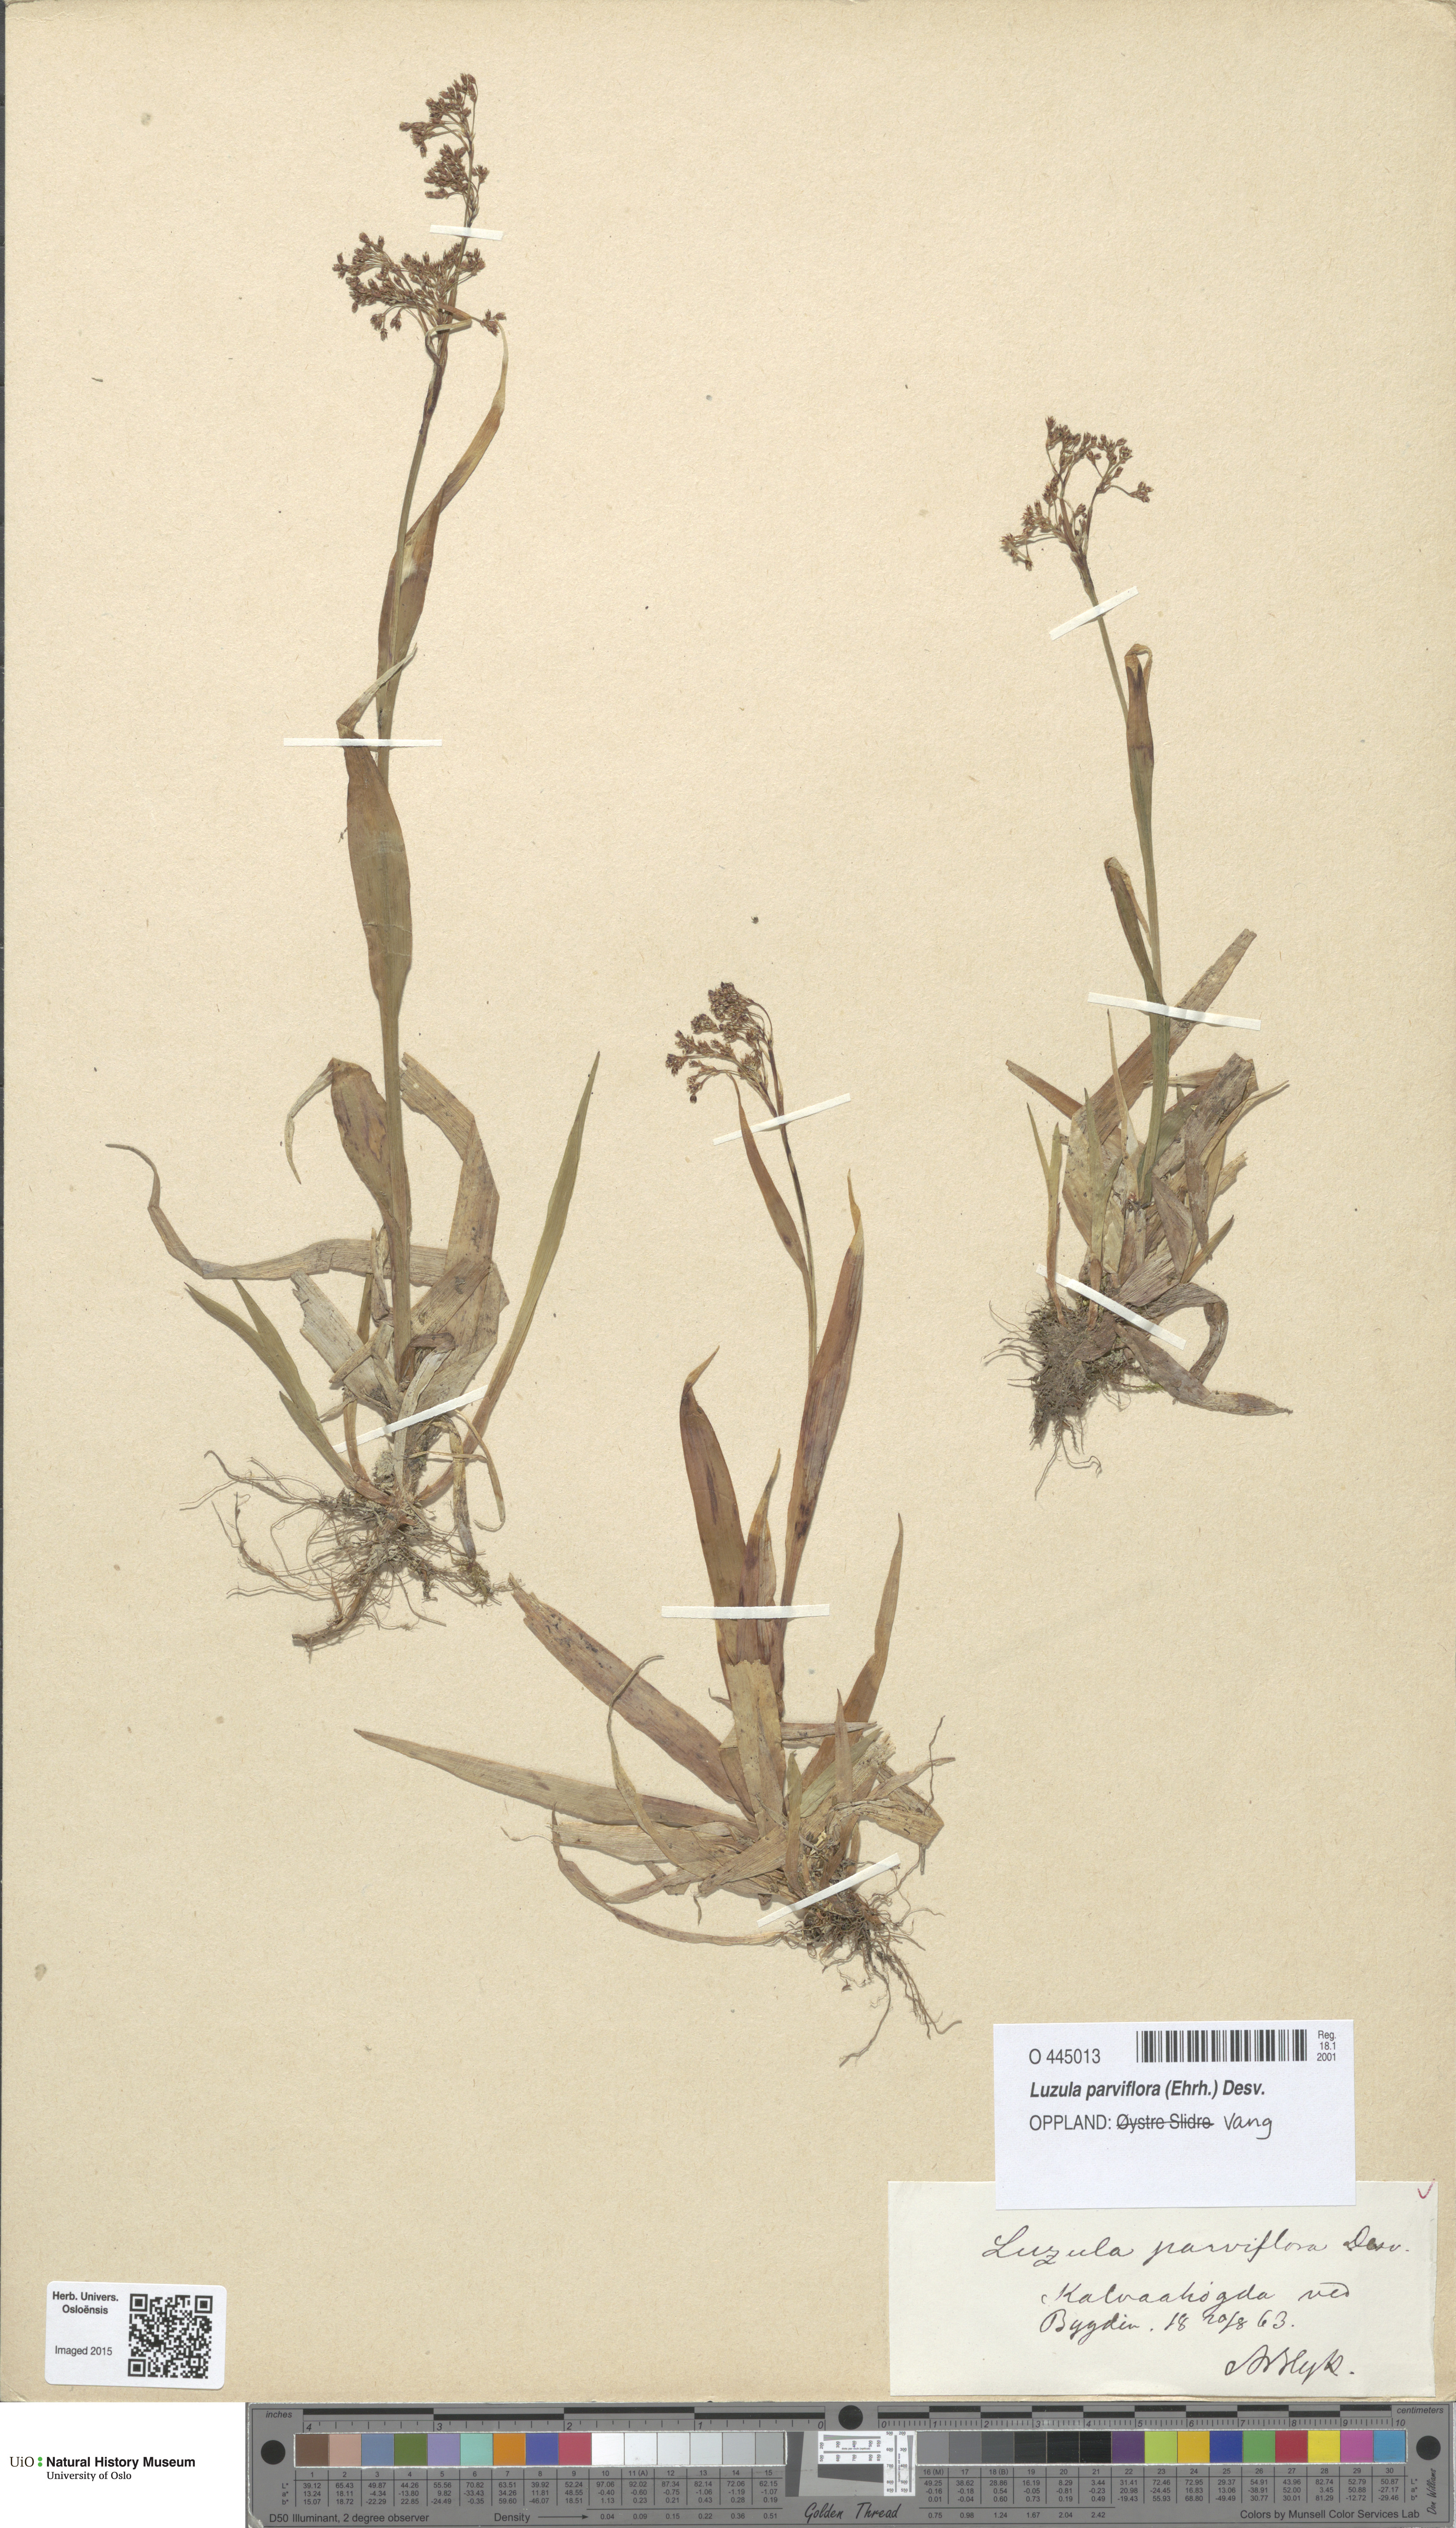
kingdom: Plantae
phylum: Tracheophyta
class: Liliopsida
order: Poales
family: Juncaceae
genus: Luzula
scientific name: Luzula parviflora
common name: Millet woodrush
